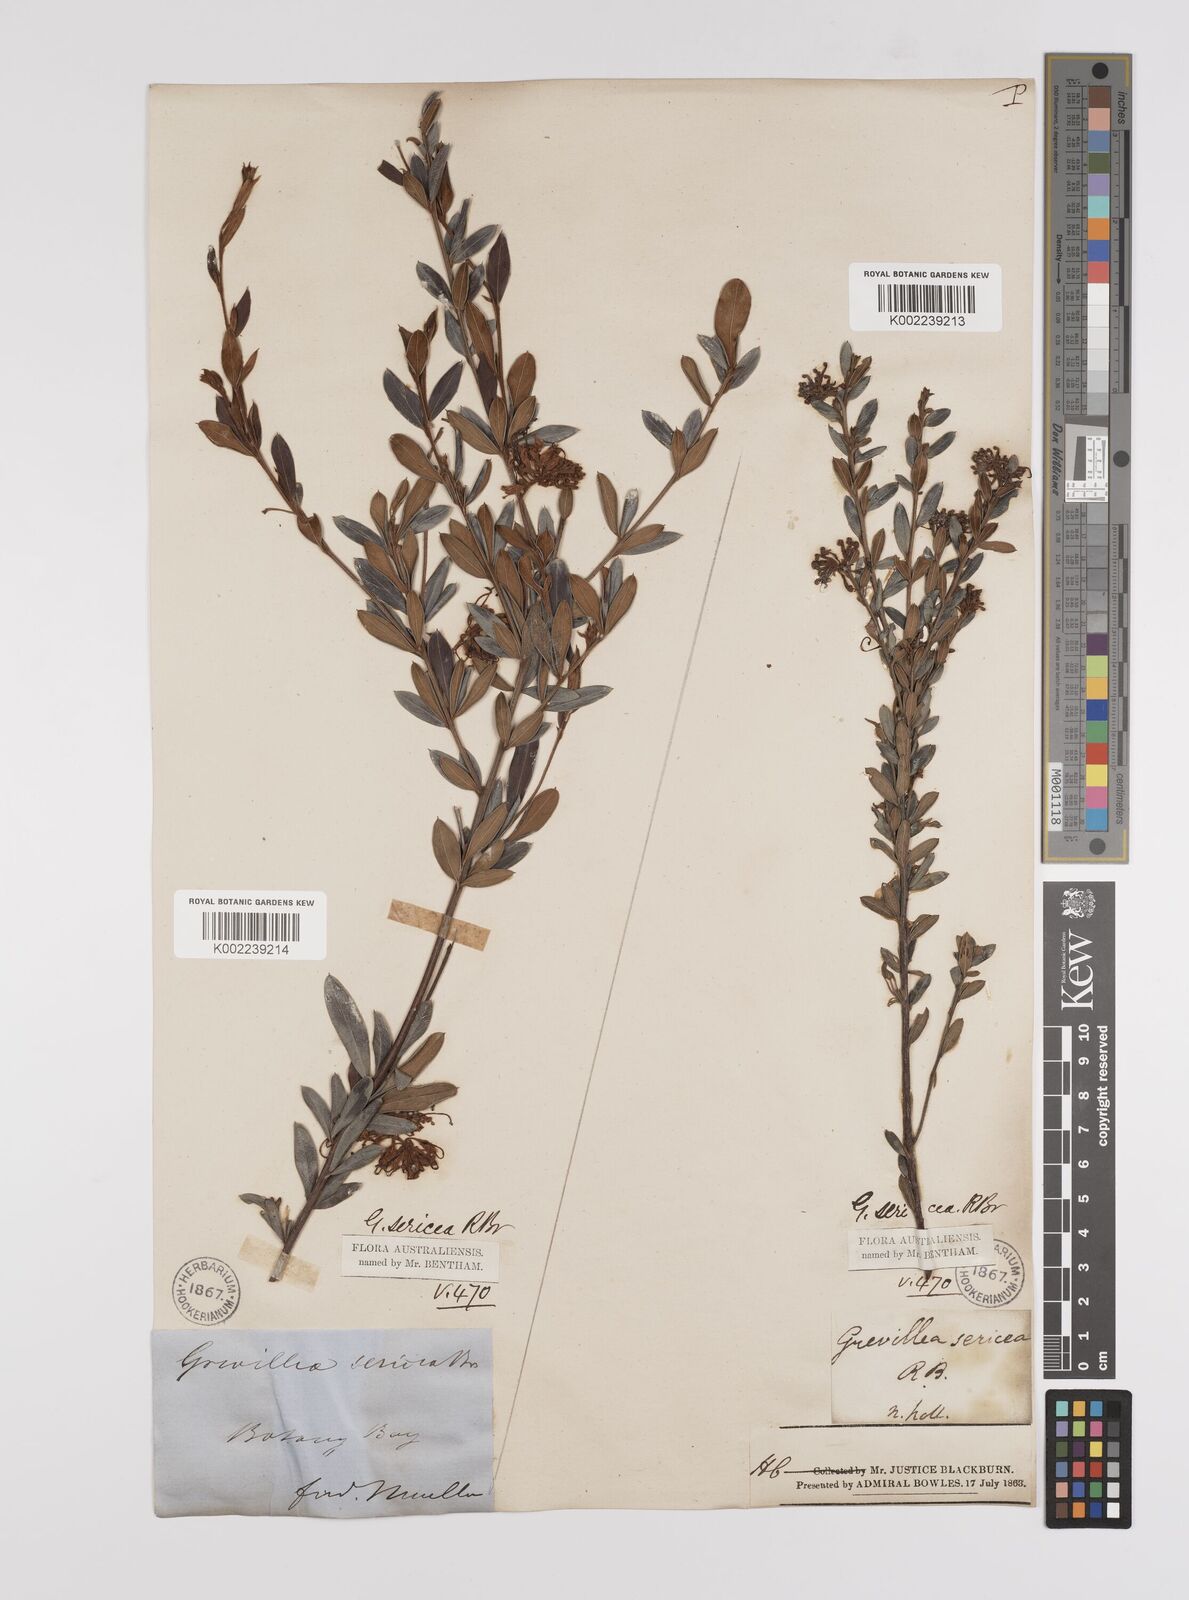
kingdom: Plantae
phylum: Tracheophyta
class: Magnoliopsida
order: Proteales
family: Proteaceae
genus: Grevillea
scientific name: Grevillea sericea
